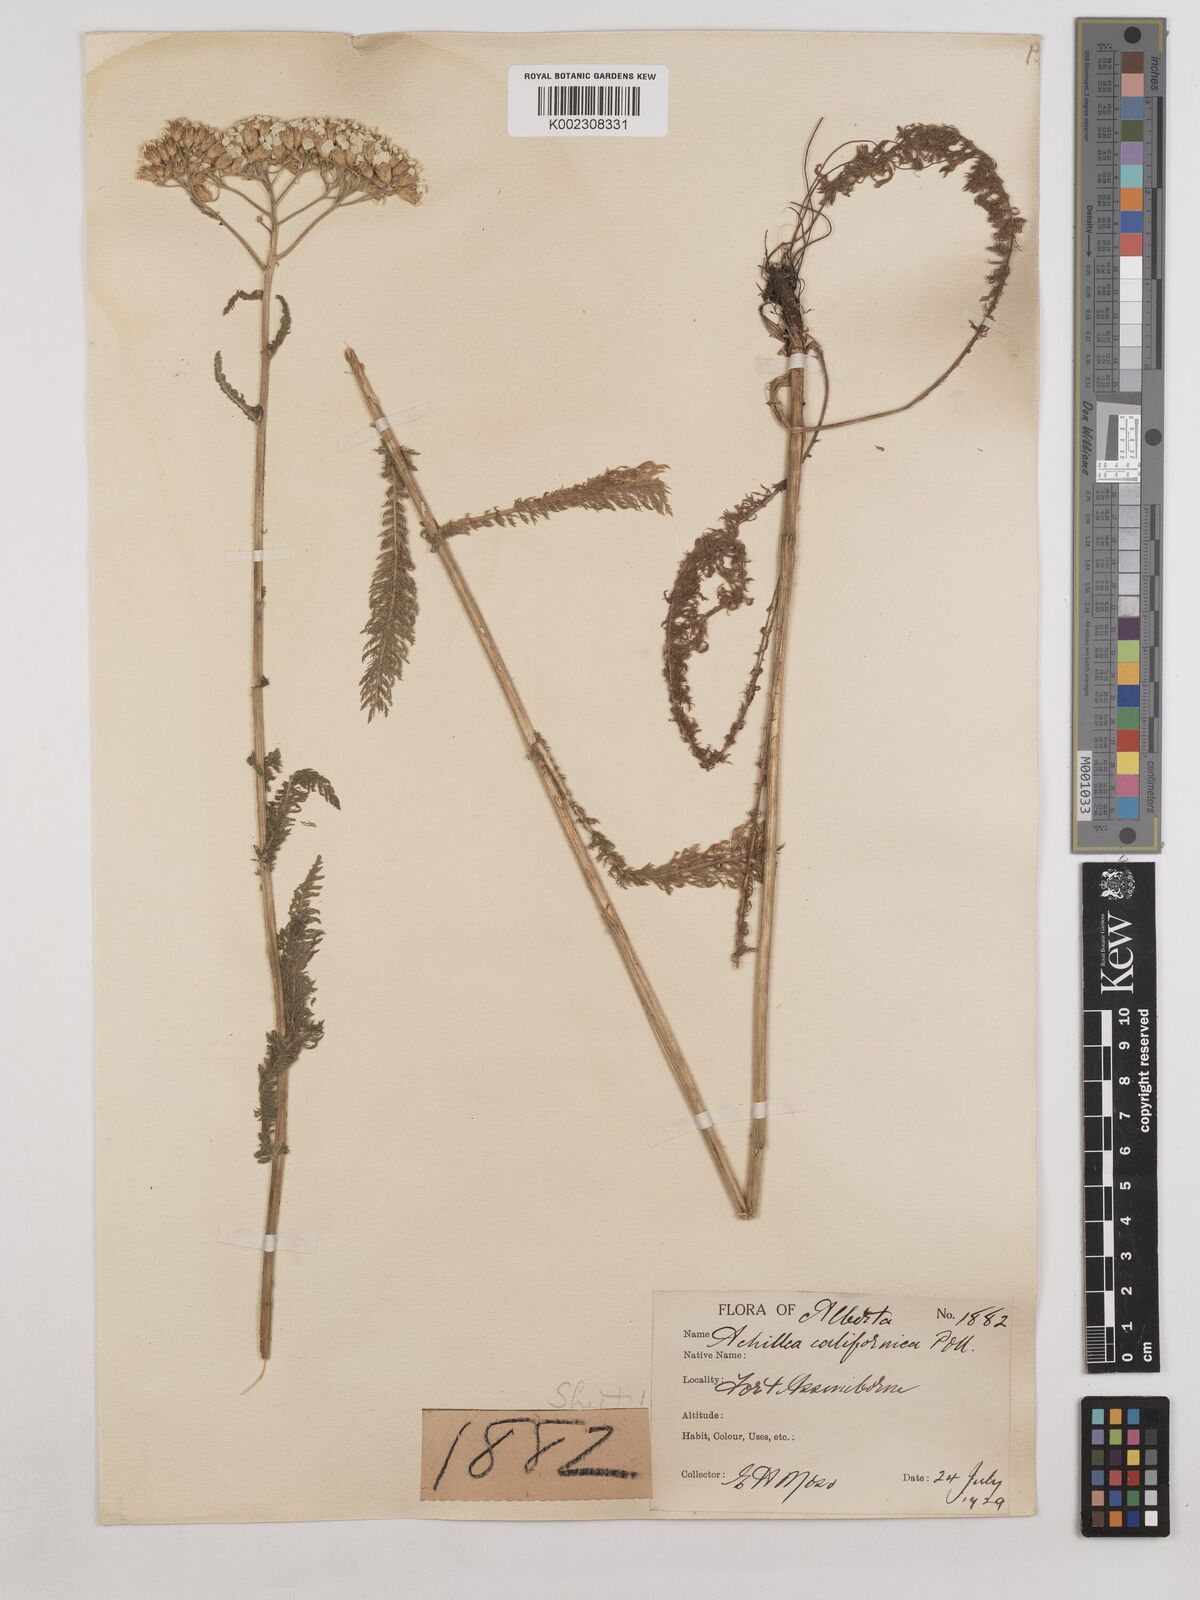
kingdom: Plantae
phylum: Tracheophyta
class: Magnoliopsida
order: Asterales
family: Asteraceae
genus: Achillea
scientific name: Achillea millefolium
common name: Yarrow
